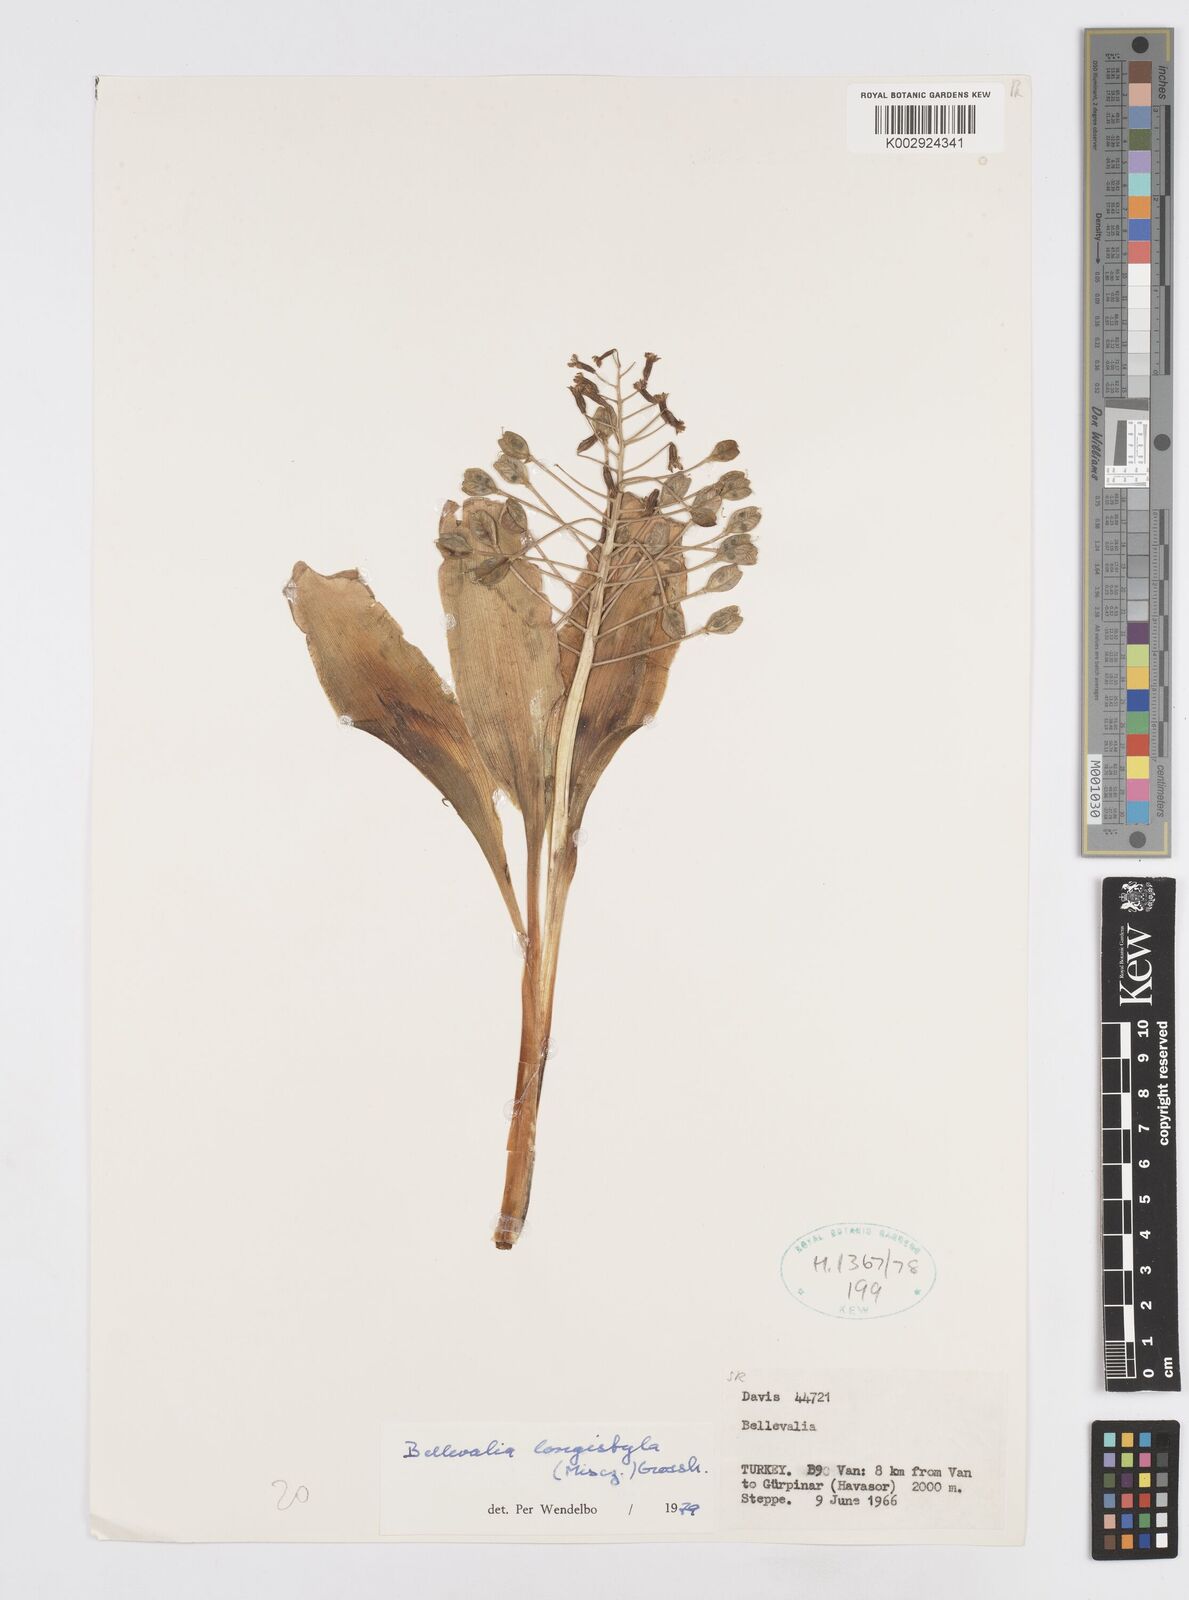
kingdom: Plantae
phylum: Tracheophyta
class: Liliopsida
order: Asparagales
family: Asparagaceae
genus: Bellevalia
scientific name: Bellevalia longistyla
